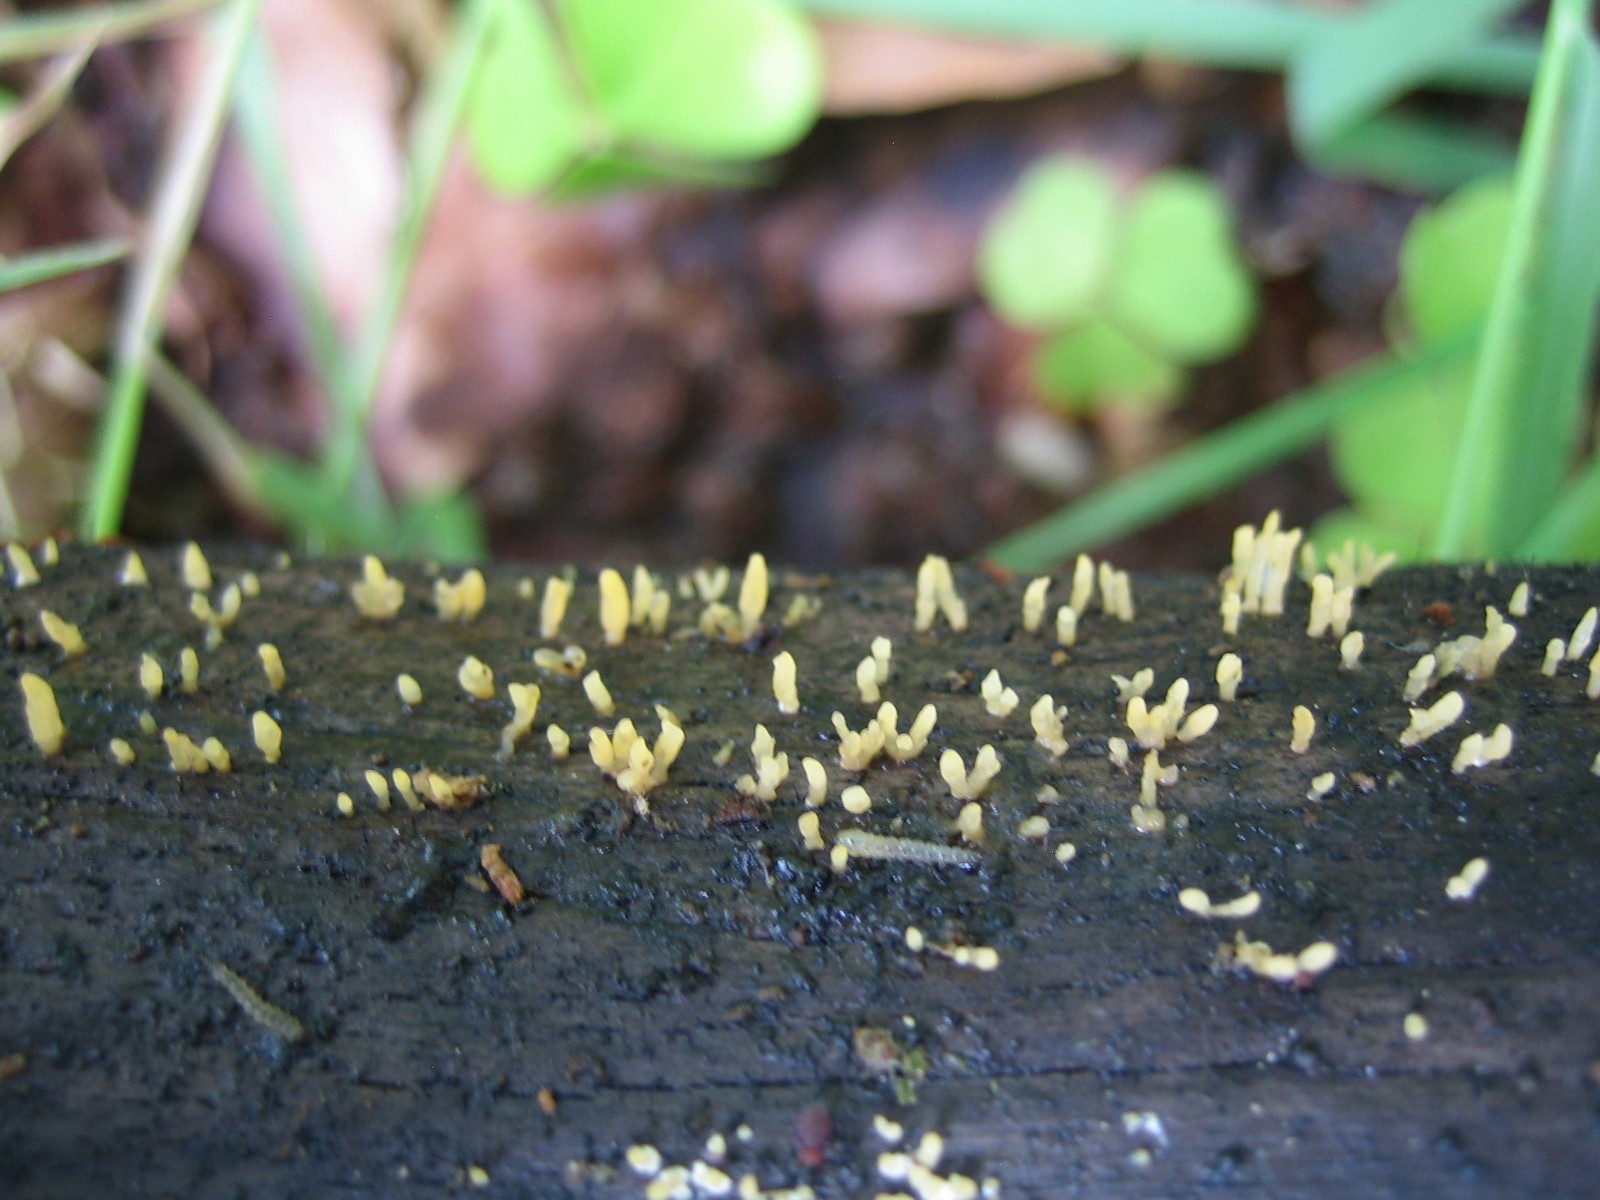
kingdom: Fungi
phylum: Basidiomycota
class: Dacrymycetes
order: Dacrymycetales
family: Dacrymycetaceae
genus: Calocera
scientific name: Calocera cornea
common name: liden guldgaffel
